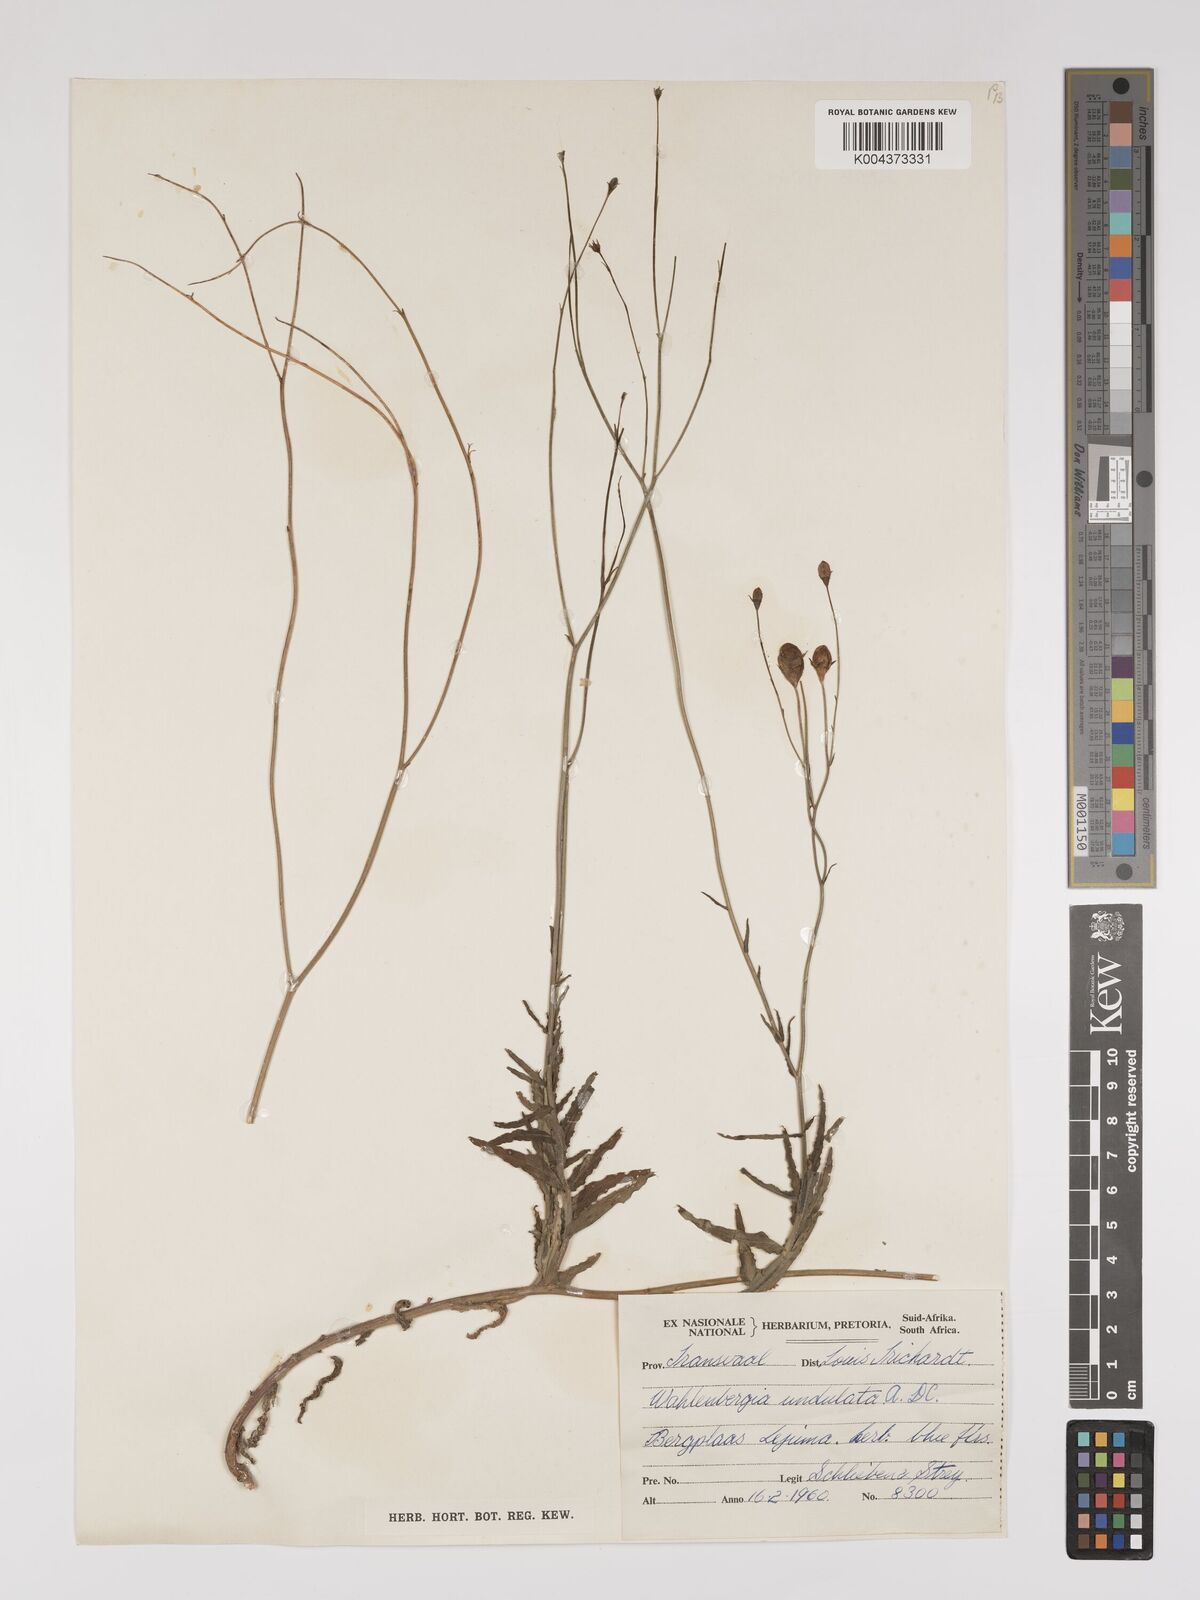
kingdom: Plantae
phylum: Tracheophyta
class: Magnoliopsida
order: Asterales
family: Campanulaceae
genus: Wahlenbergia
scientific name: Wahlenbergia undulata
